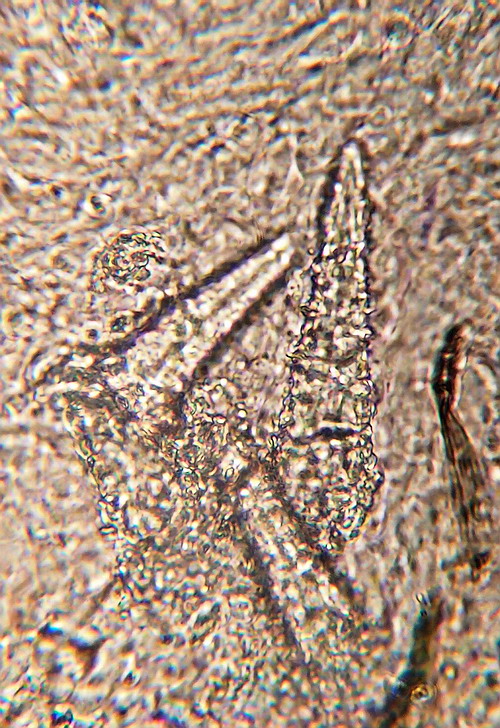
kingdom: Fungi
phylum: Basidiomycota
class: Agaricomycetes
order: Hymenochaetales
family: Rickenellaceae
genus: Peniophorella
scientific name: Peniophorella pubera
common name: dunet kalkskind
